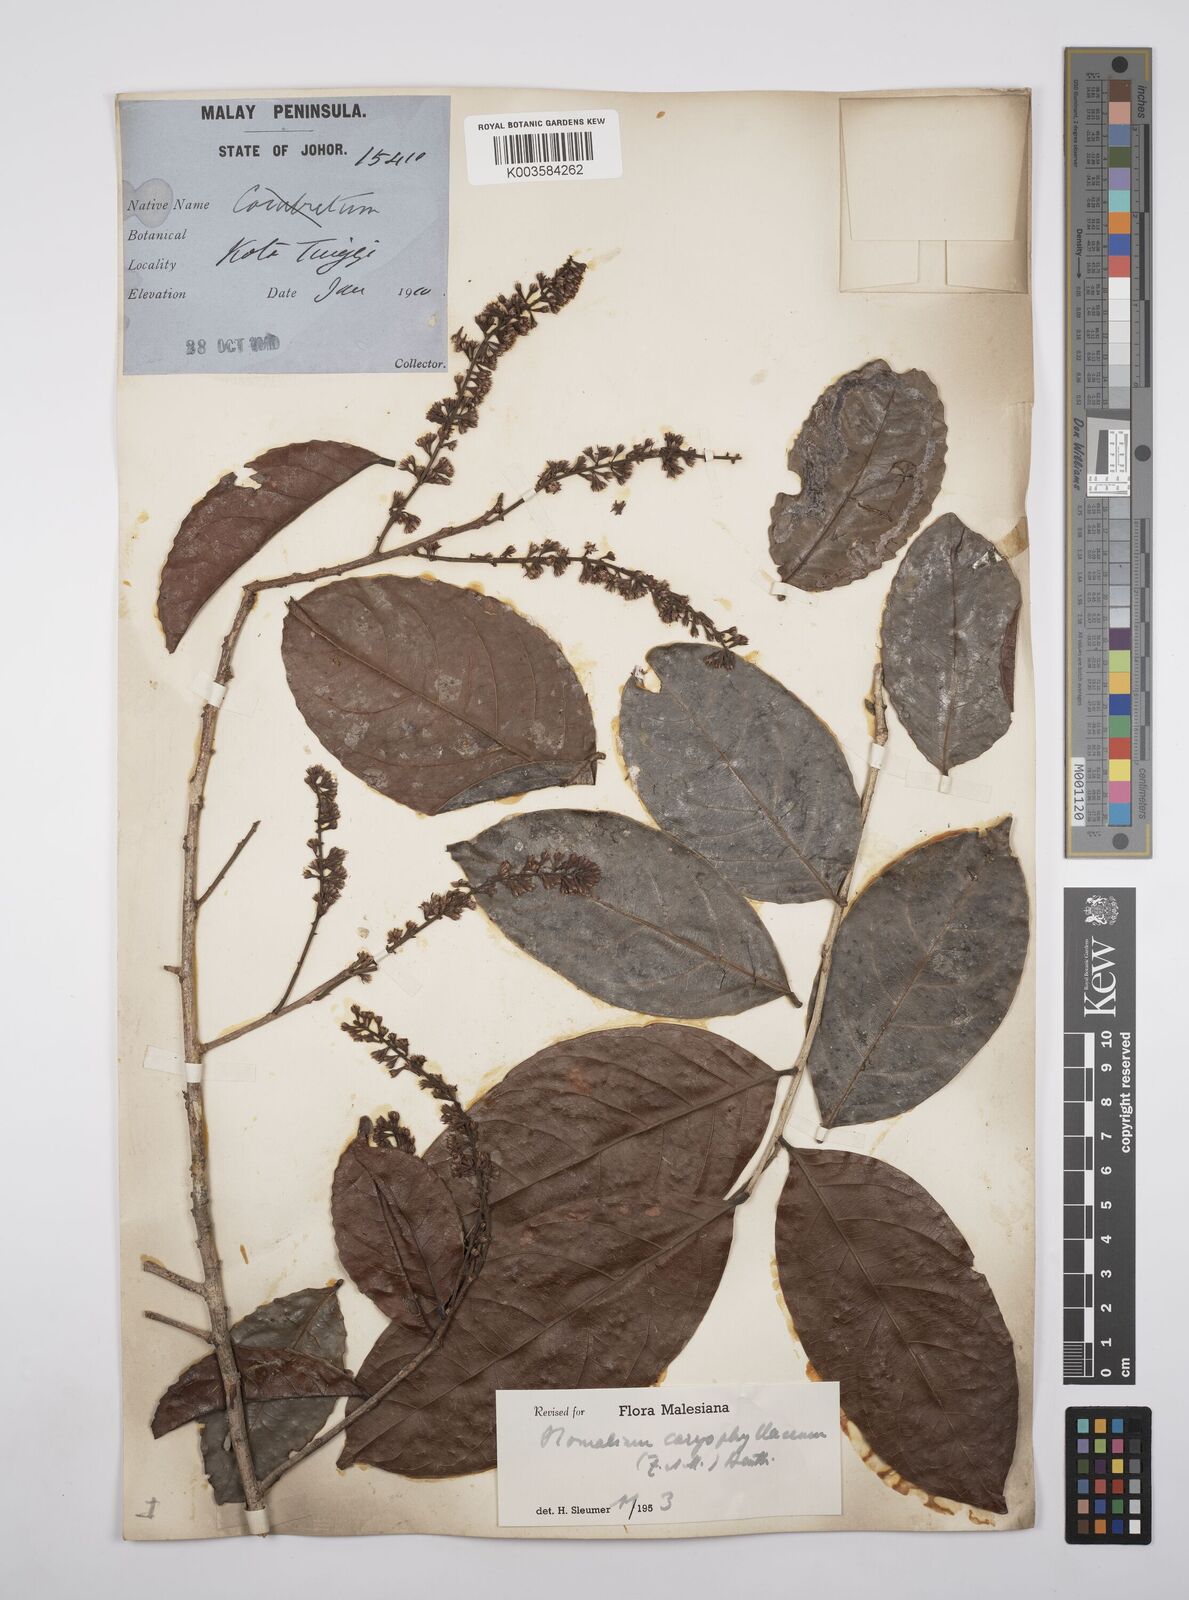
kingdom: Plantae
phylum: Tracheophyta
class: Magnoliopsida
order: Malpighiales
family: Salicaceae
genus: Homalium
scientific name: Homalium caryophyllaceum
